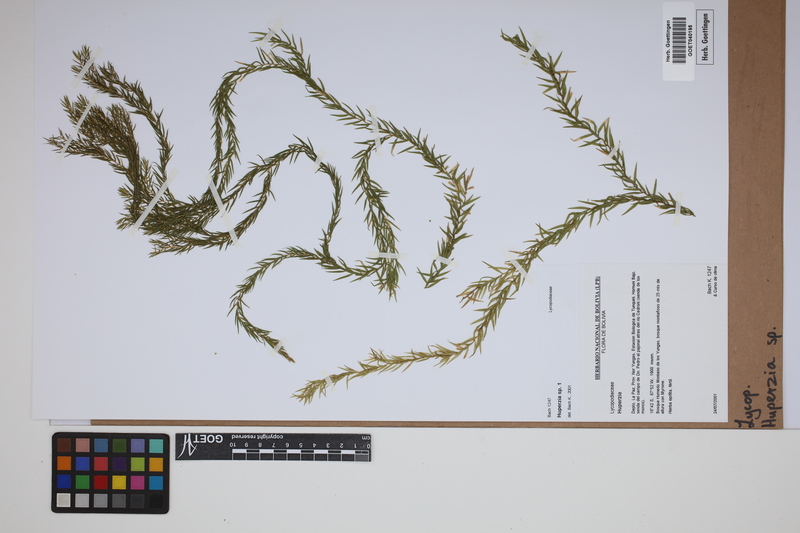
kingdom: Plantae
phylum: Tracheophyta
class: Lycopodiopsida
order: Lycopodiales
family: Lycopodiaceae
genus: Phlegmariurus
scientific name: Phlegmariurus
